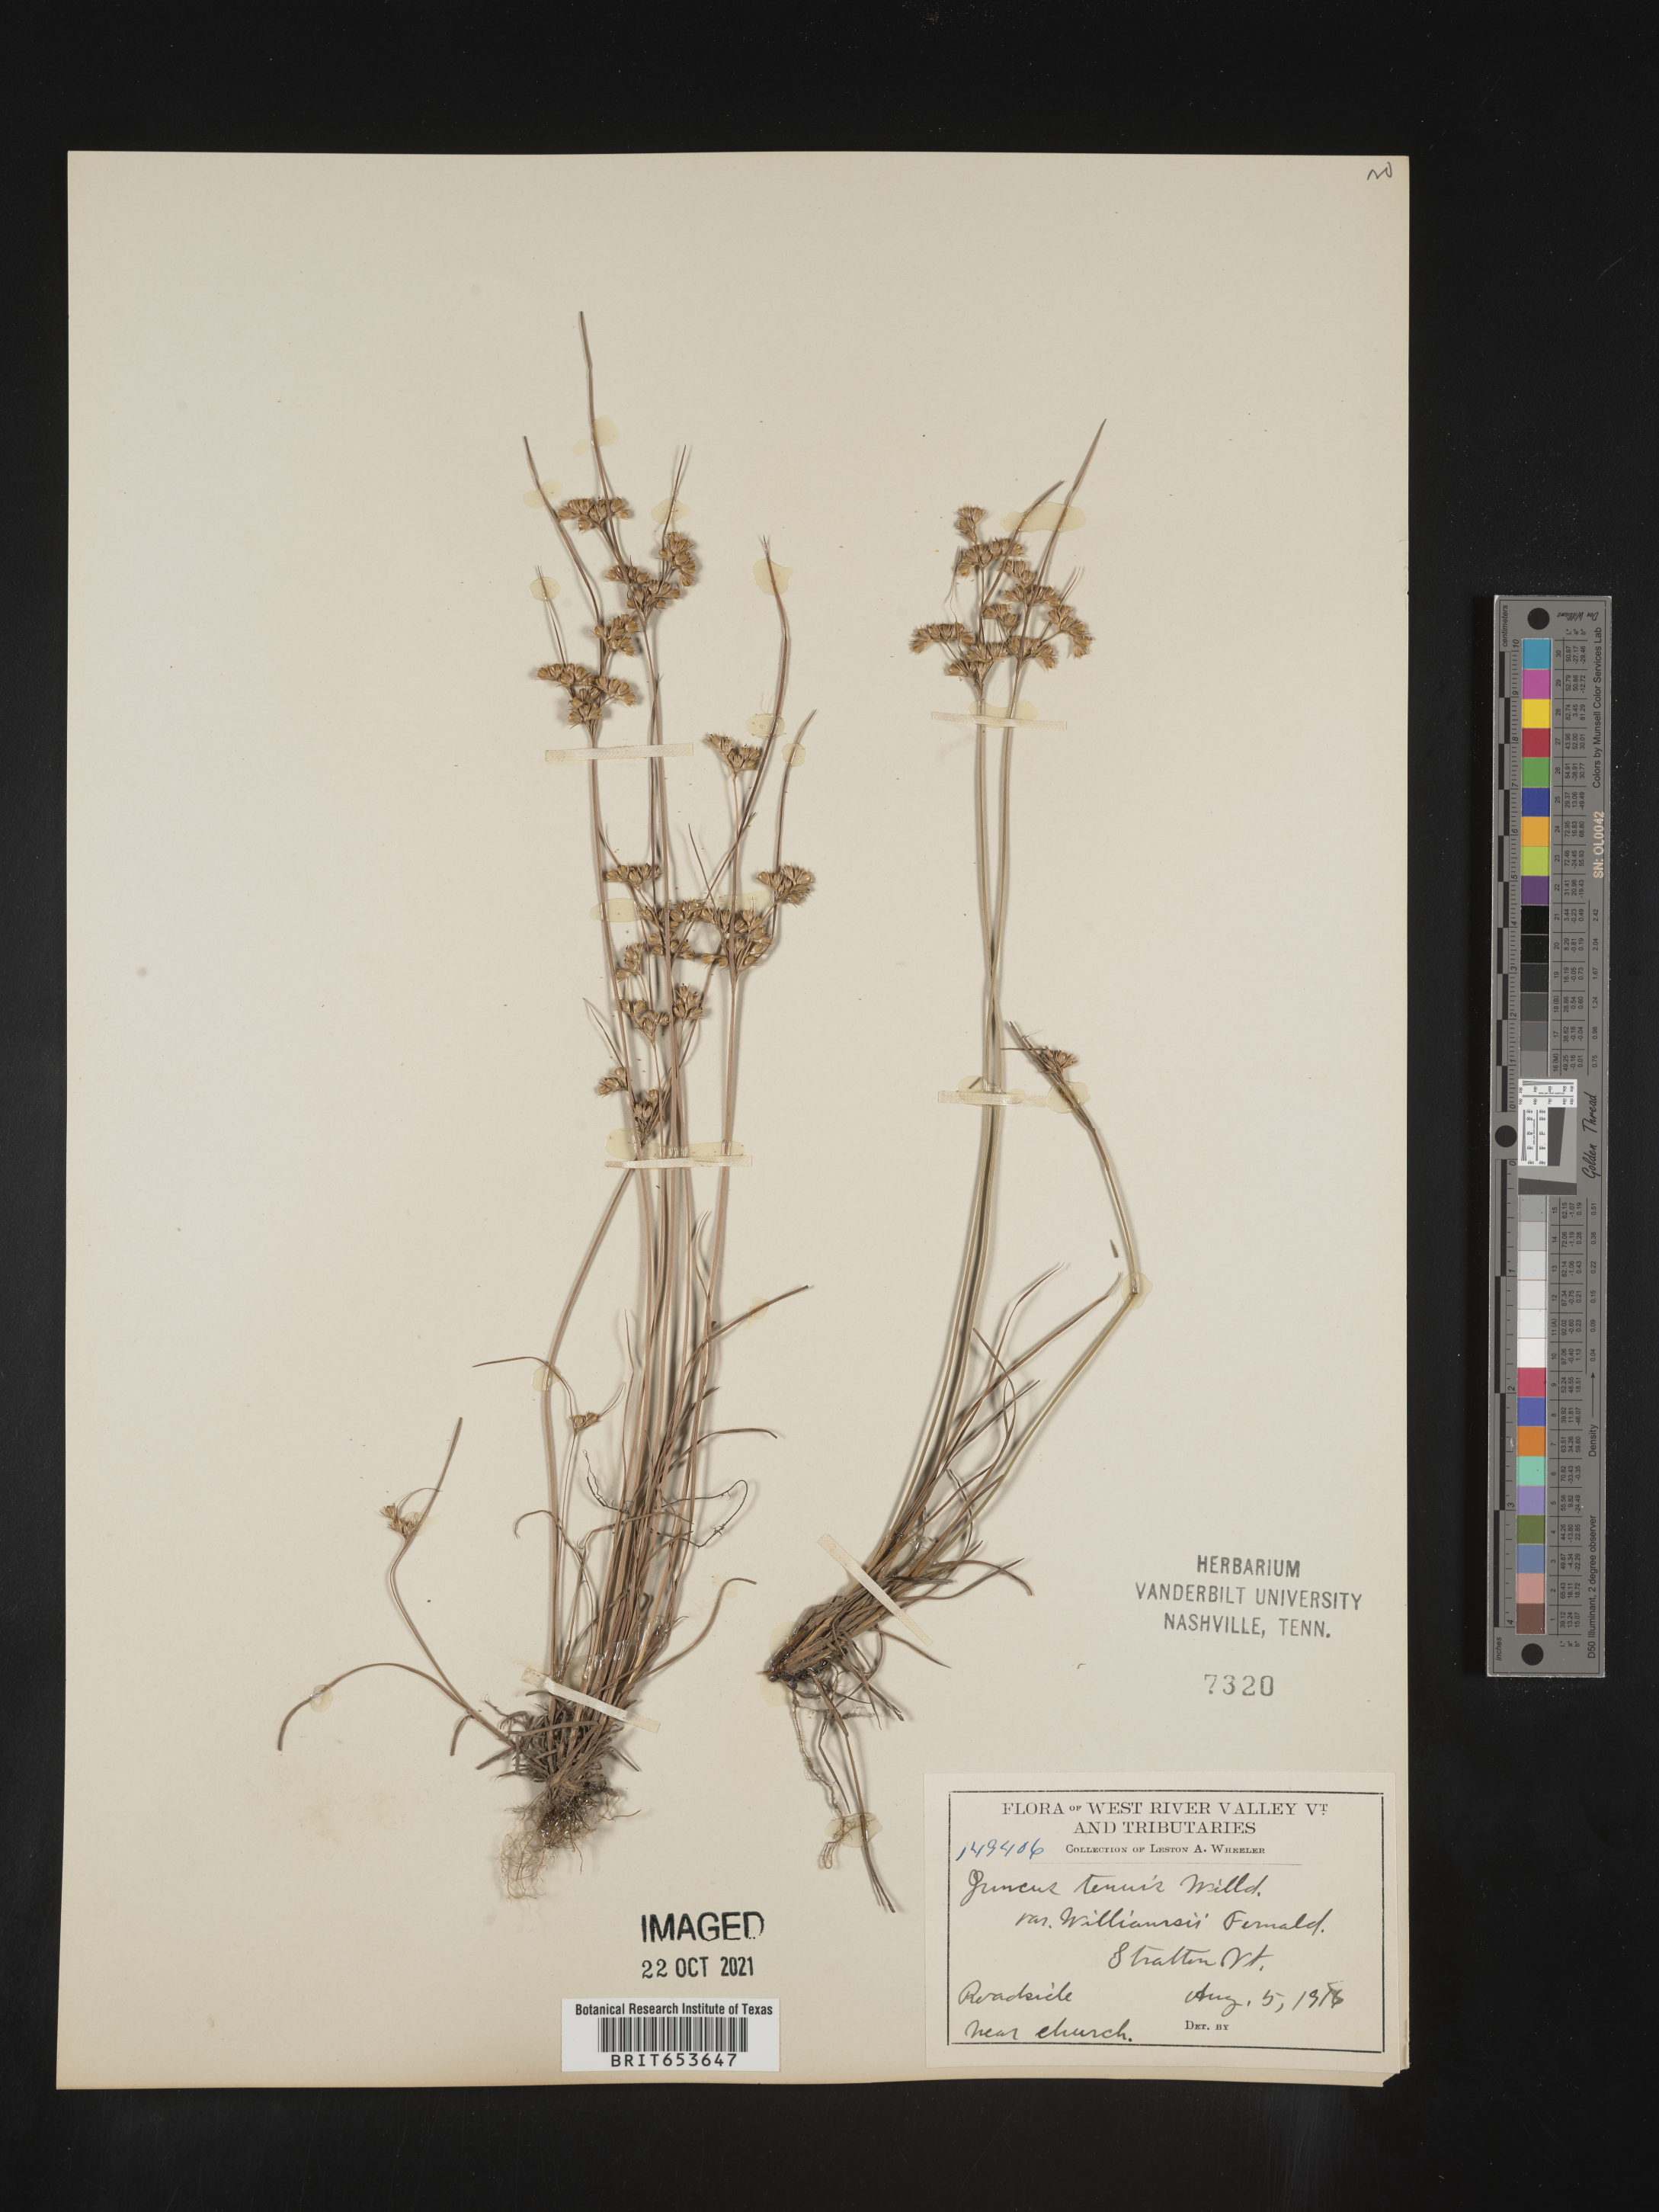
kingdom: Plantae
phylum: Tracheophyta
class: Liliopsida
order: Poales
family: Juncaceae
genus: Juncus
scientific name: Juncus tenuis
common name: Slender rush
